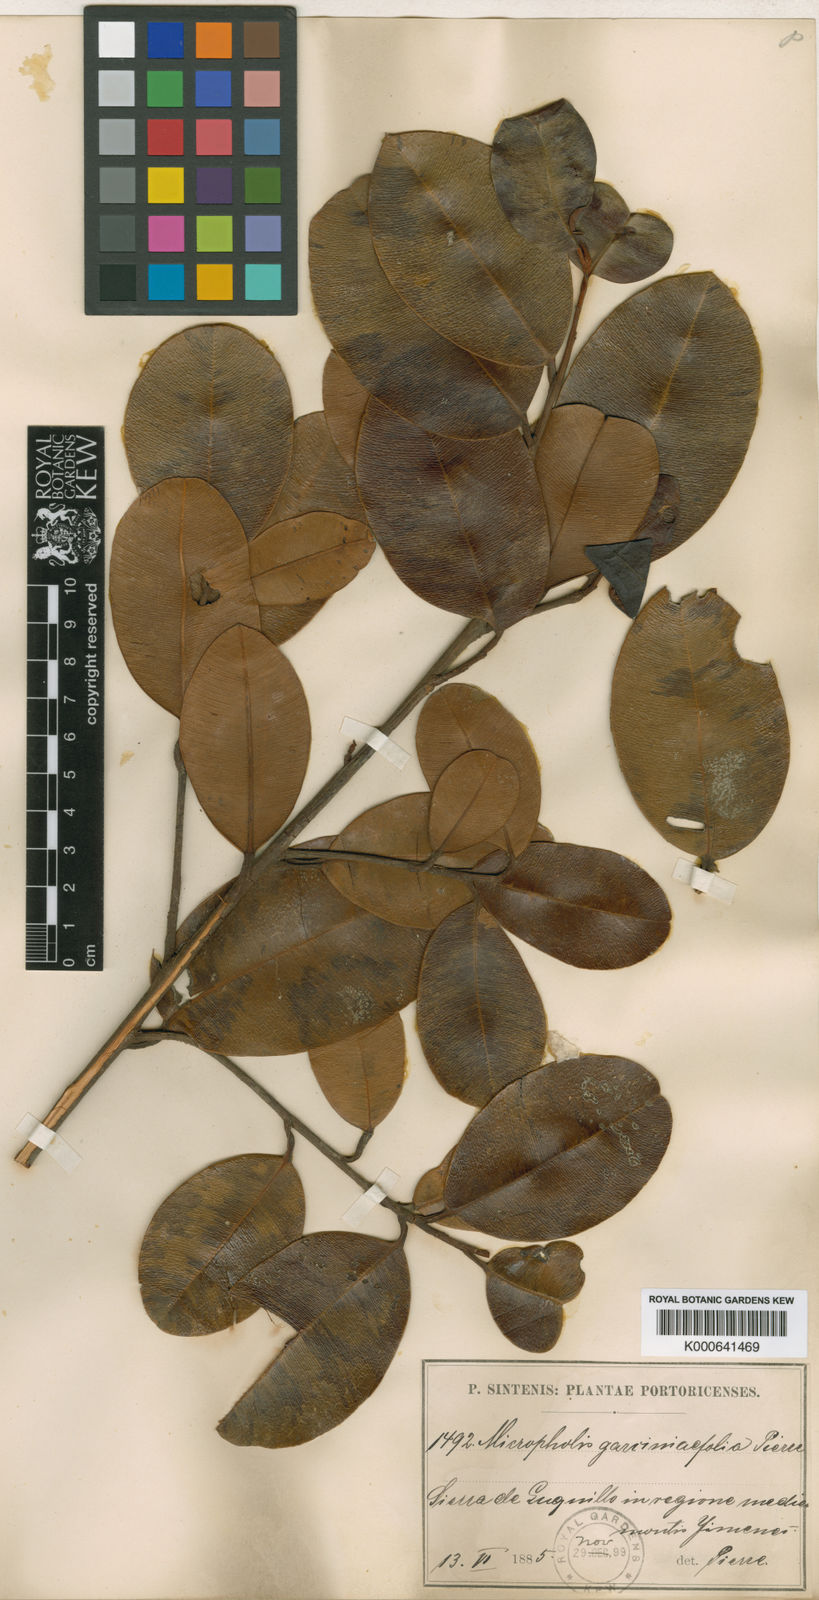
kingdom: Plantae
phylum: Tracheophyta
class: Magnoliopsida
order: Ericales
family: Sapotaceae
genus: Micropholis
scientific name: Micropholis garciniifolia
